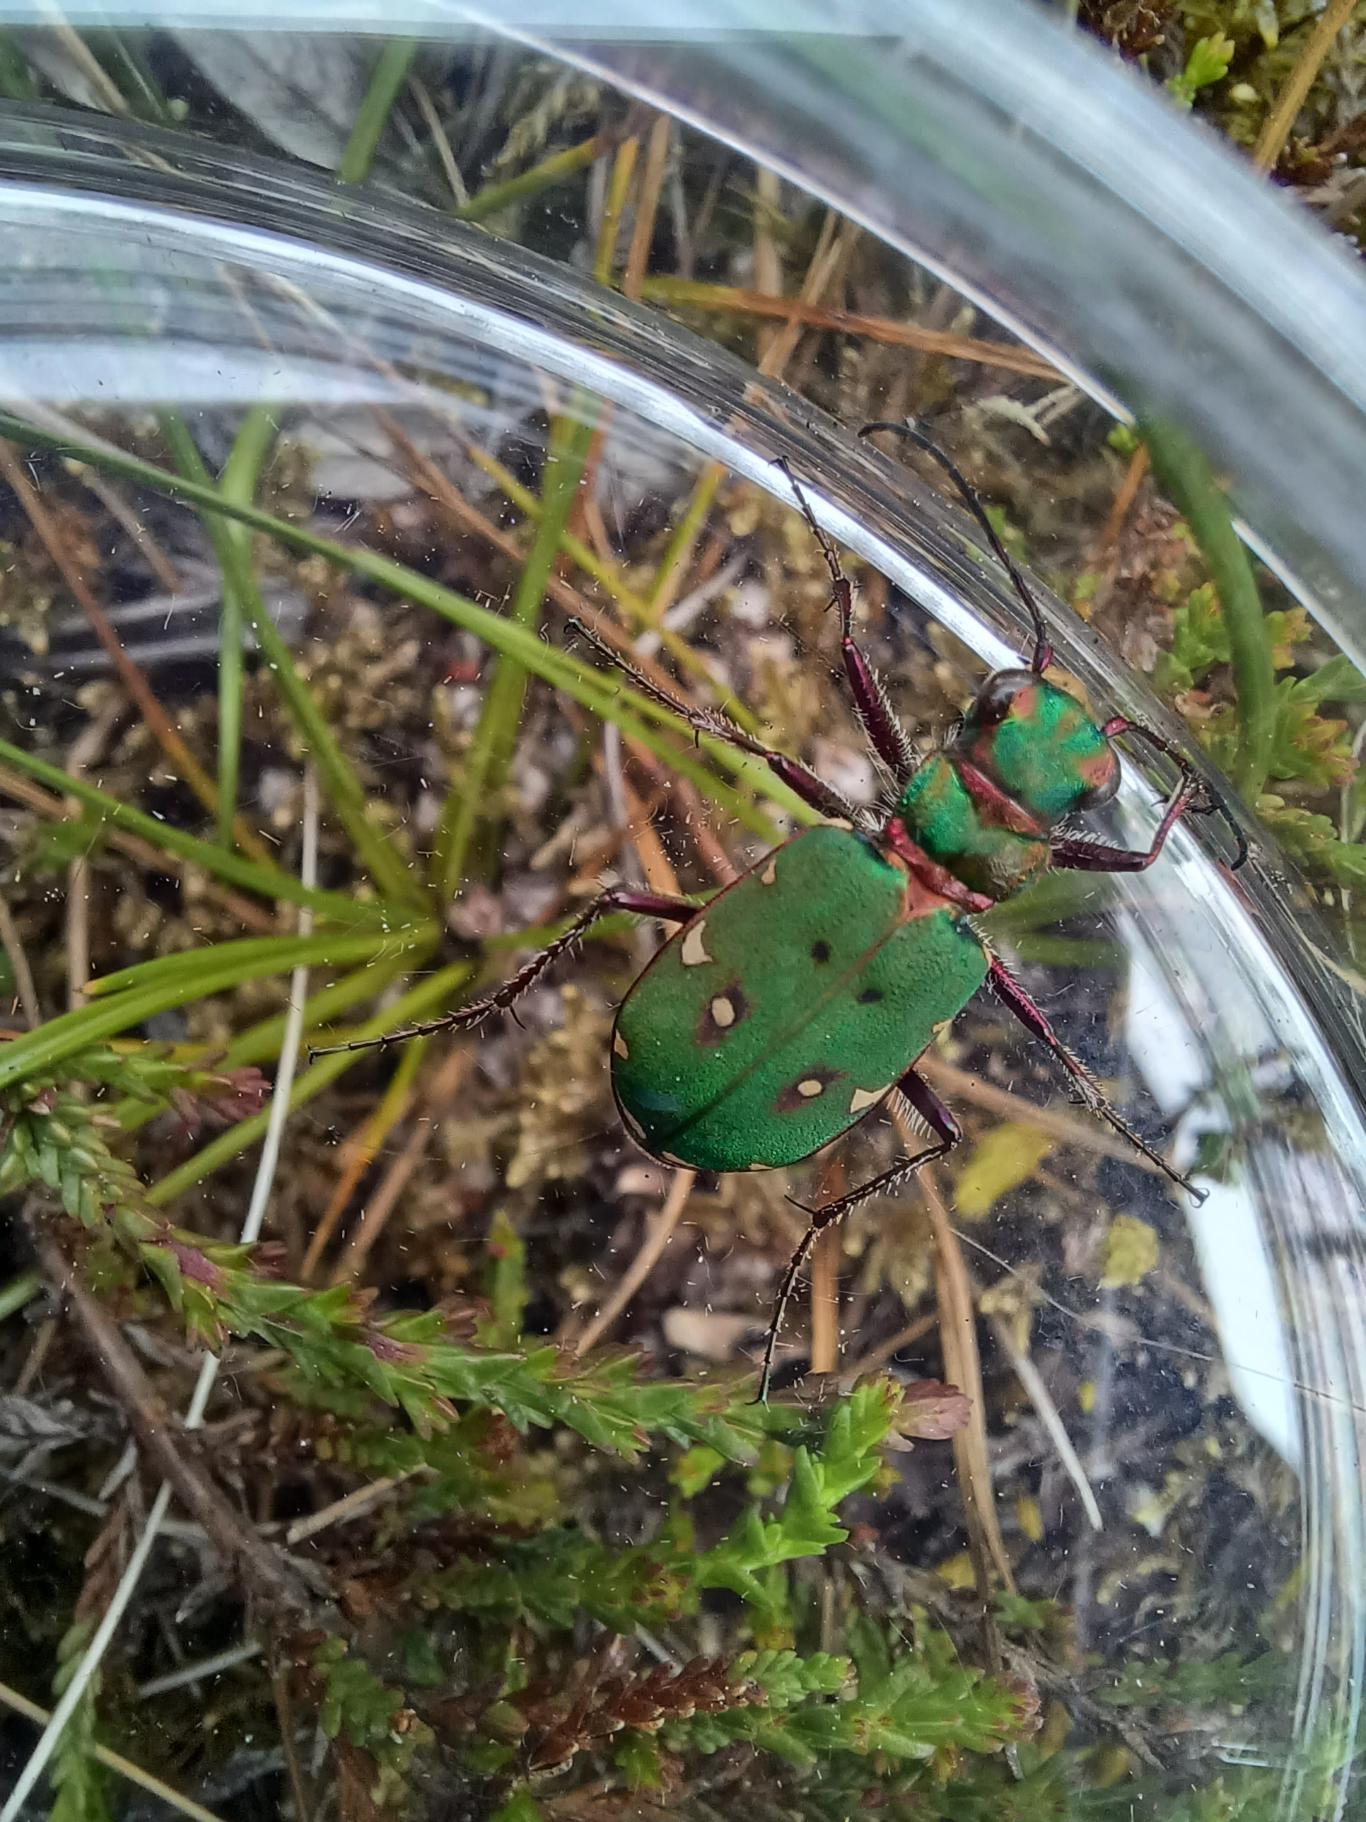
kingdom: Animalia
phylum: Arthropoda
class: Insecta
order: Coleoptera
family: Carabidae
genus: Cicindela
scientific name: Cicindela campestris
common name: Grøn sandspringer
